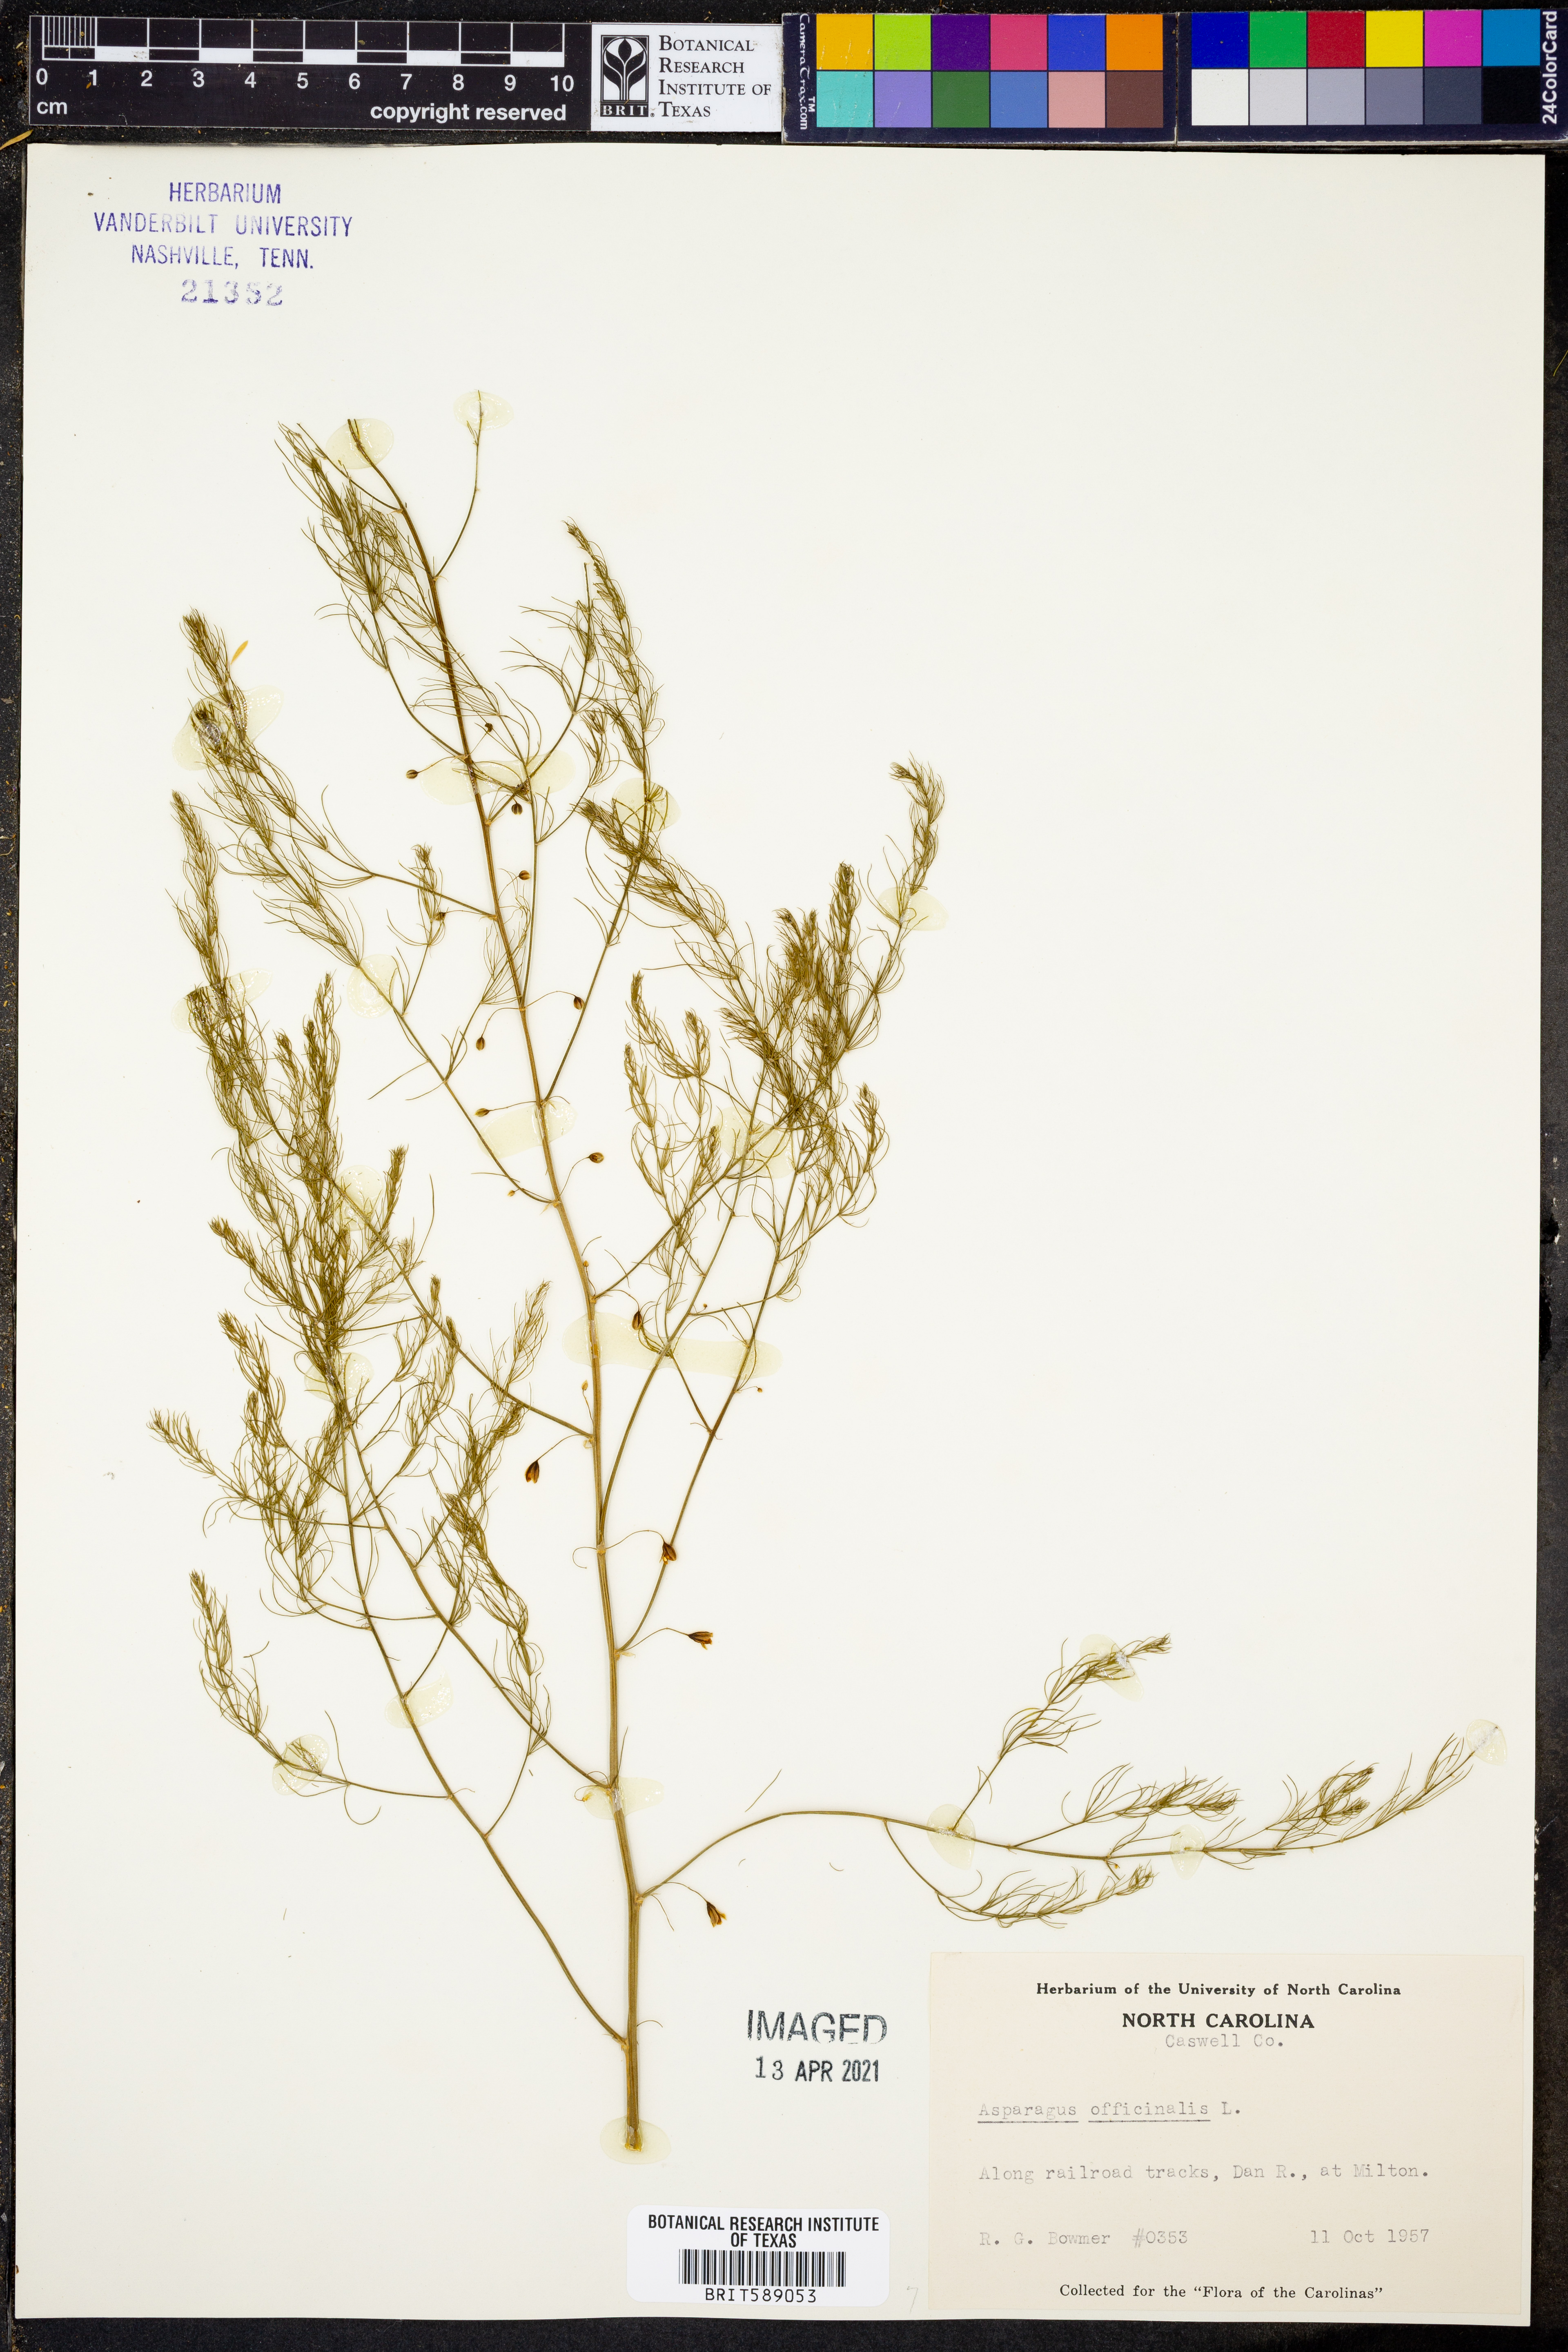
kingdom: Plantae
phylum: Tracheophyta
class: Liliopsida
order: Asparagales
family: Asparagaceae
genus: Asparagus
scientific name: Asparagus officinalis
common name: Garden asparagus
